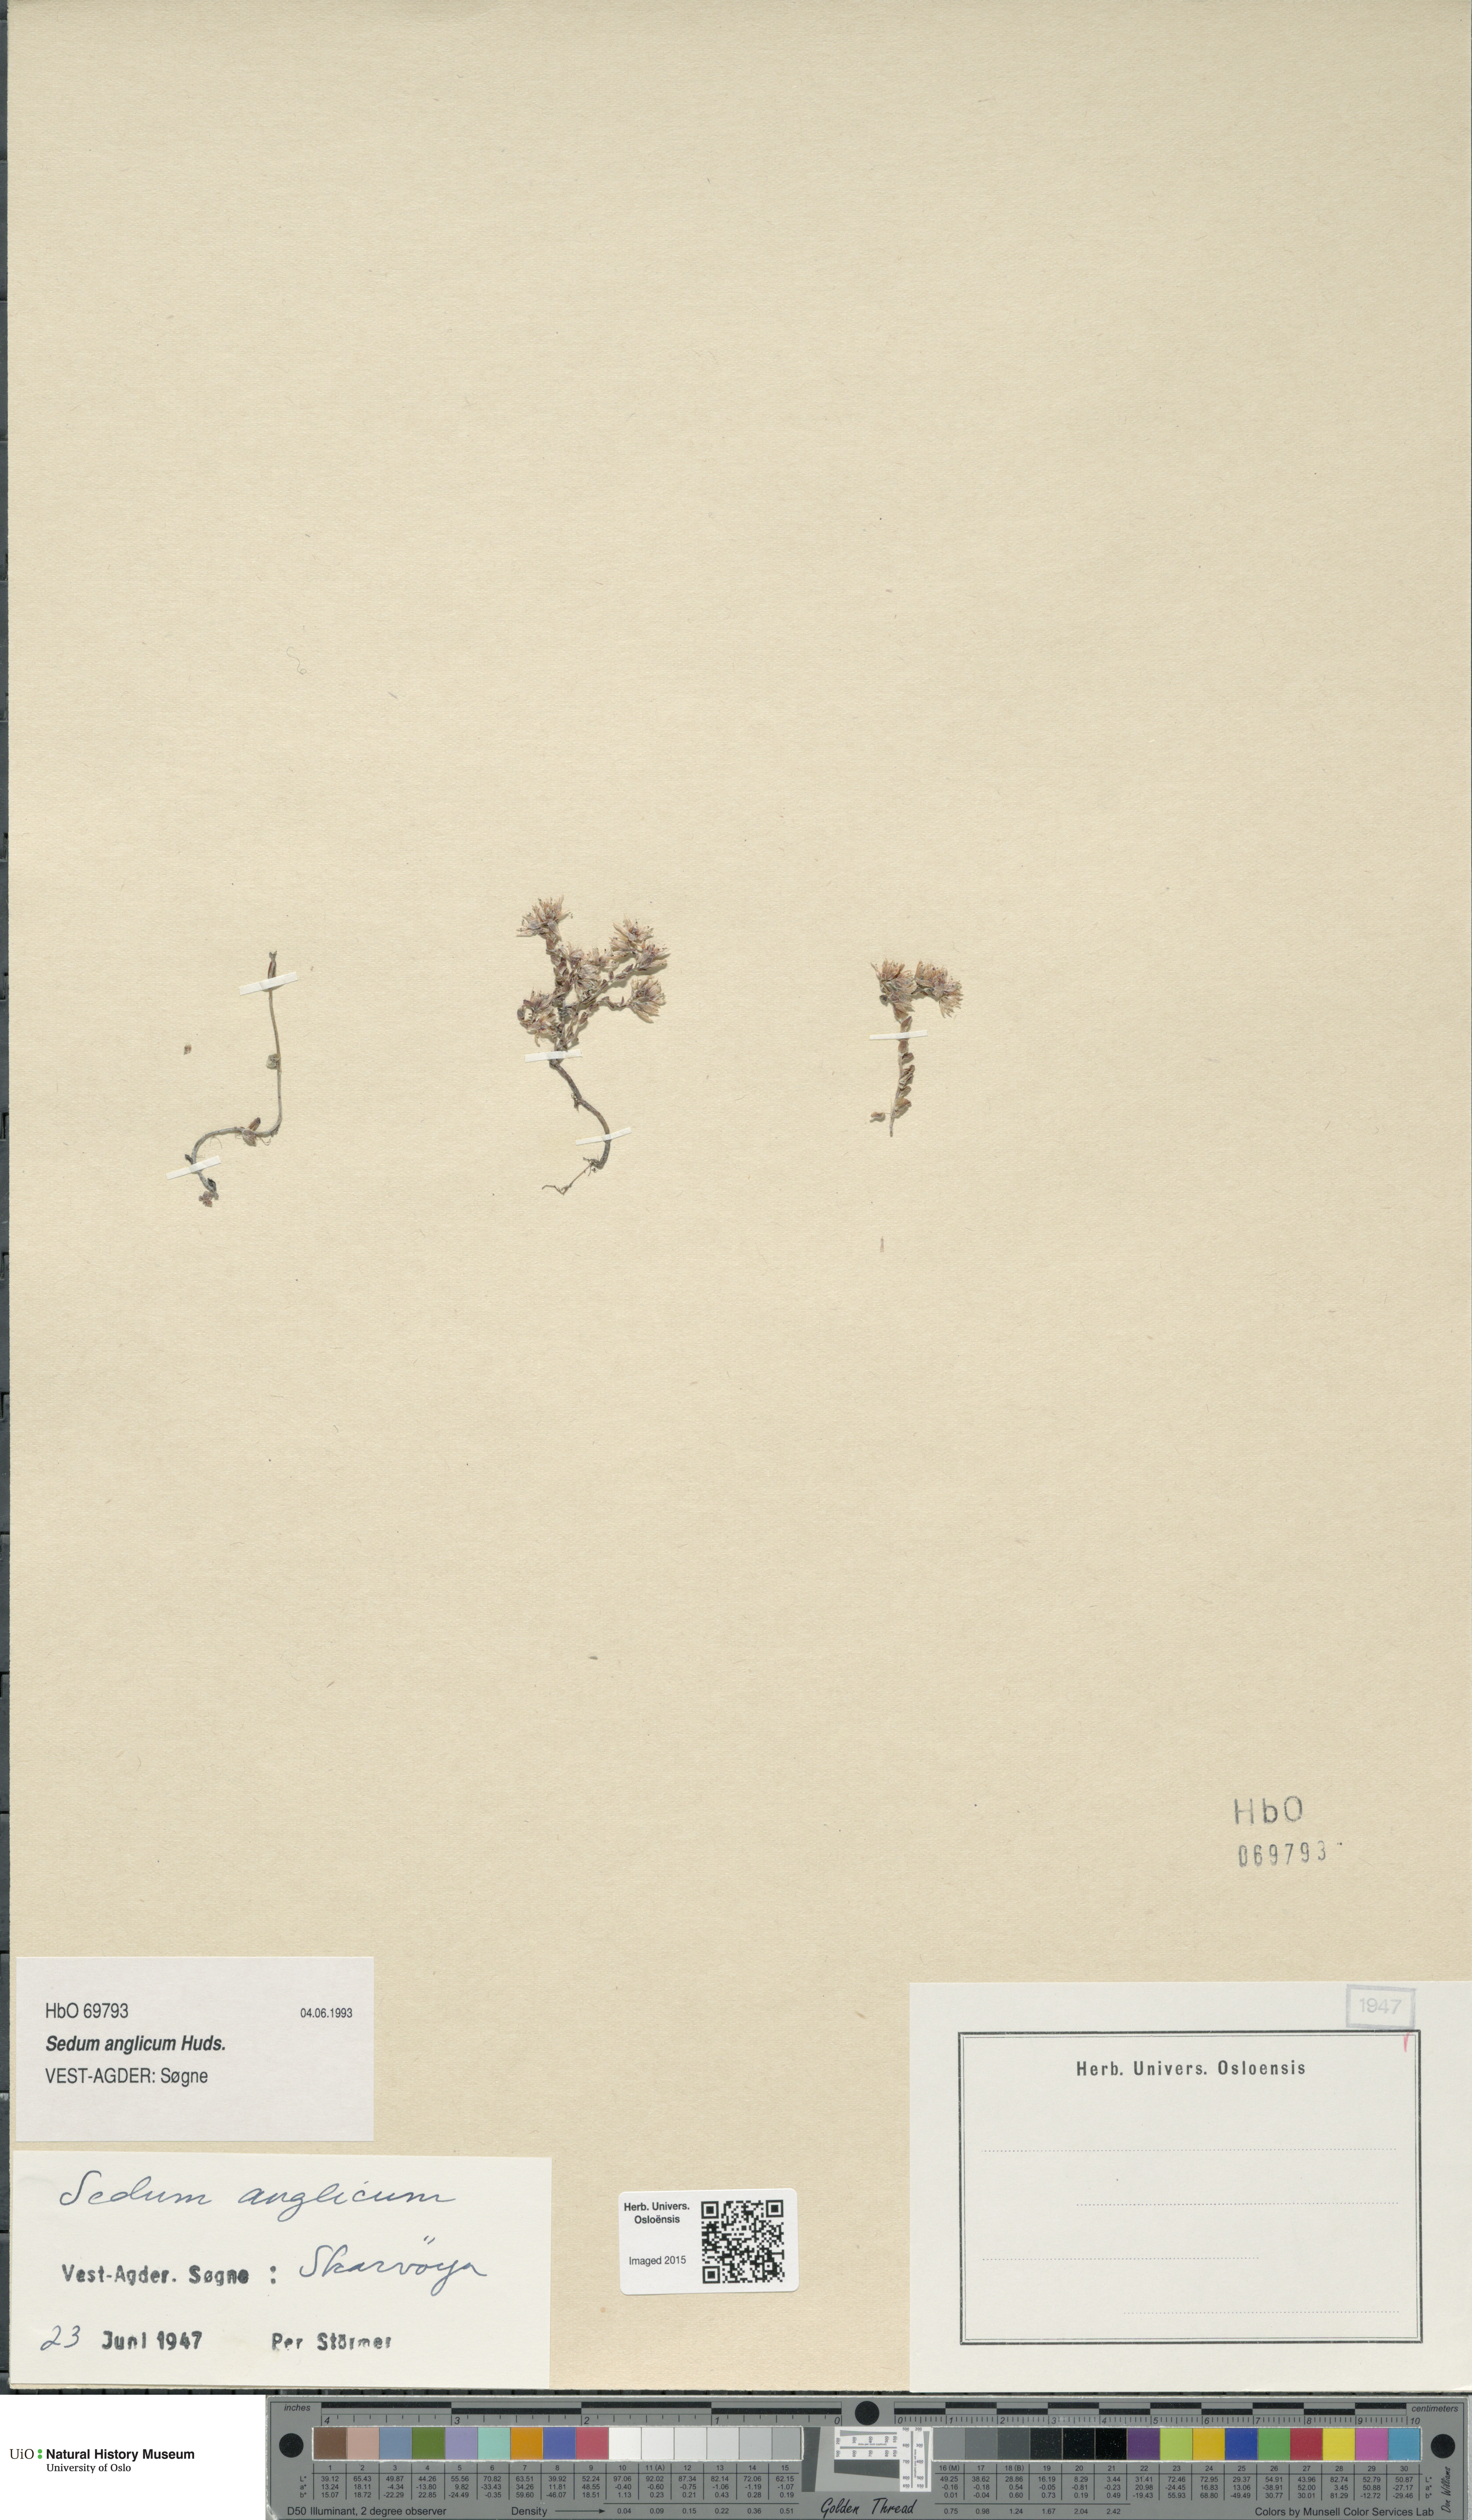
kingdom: Plantae
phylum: Tracheophyta
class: Magnoliopsida
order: Saxifragales
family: Crassulaceae
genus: Sedum
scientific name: Sedum anglicum
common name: English stonecrop
